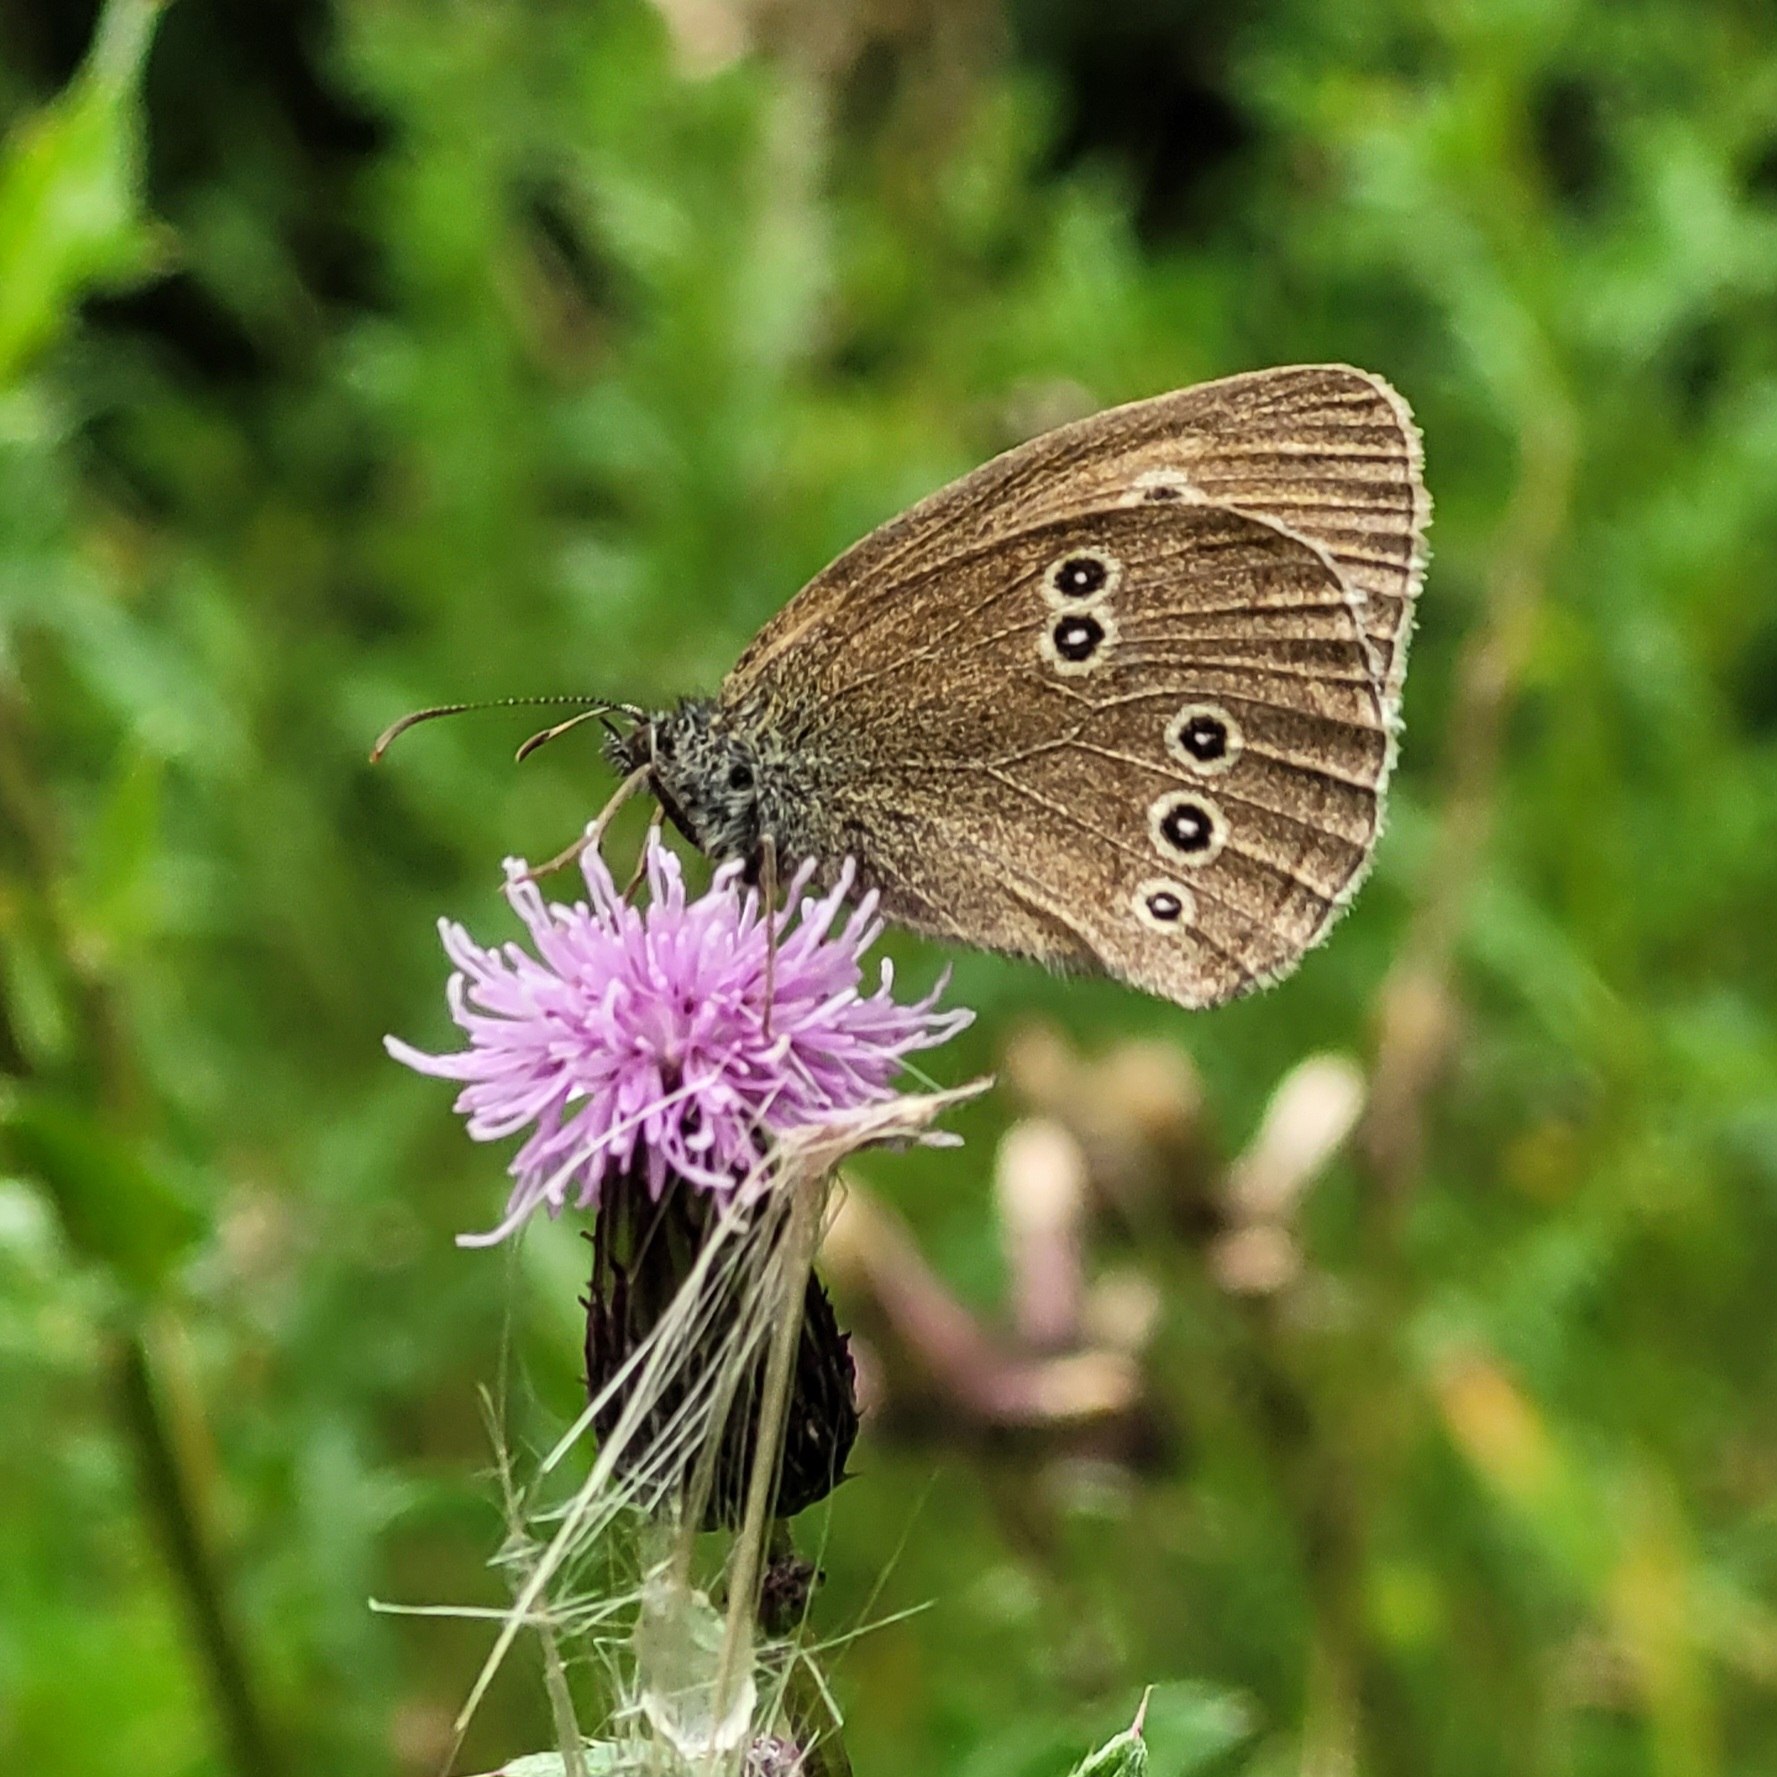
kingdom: Animalia
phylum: Arthropoda
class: Insecta
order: Lepidoptera
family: Nymphalidae
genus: Aphantopus
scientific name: Aphantopus hyperantus
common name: Engrandøje
